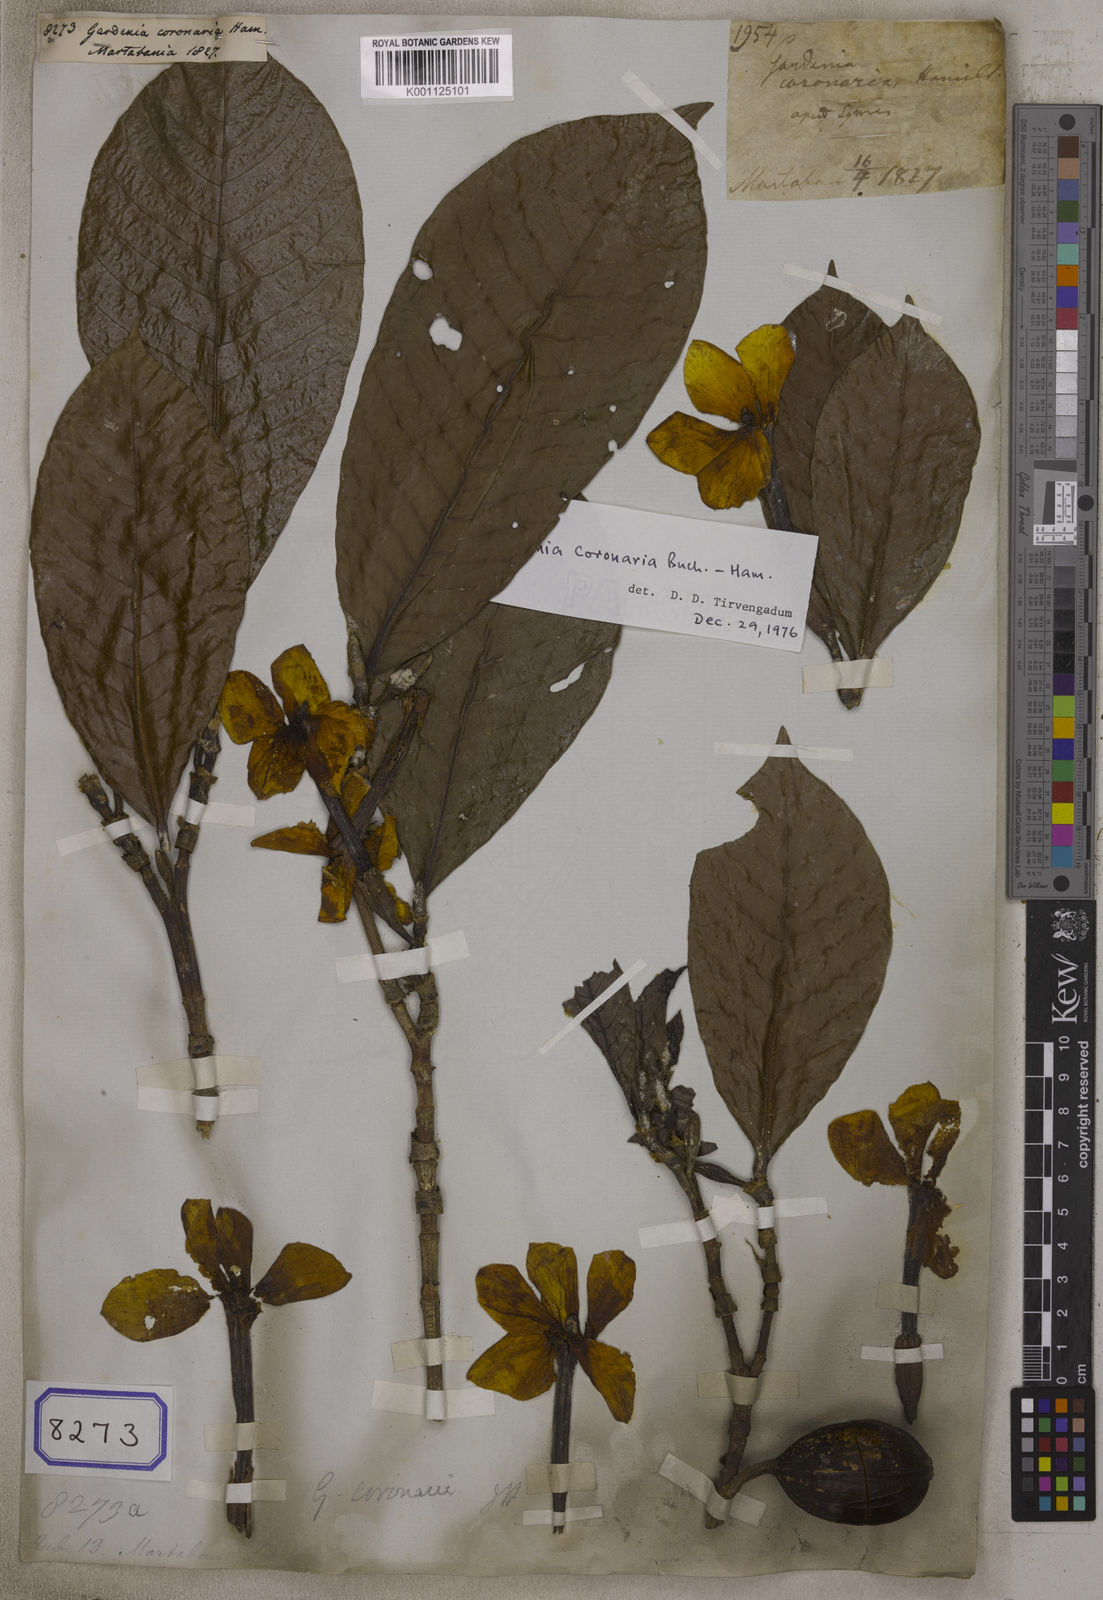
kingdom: Plantae
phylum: Tracheophyta
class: Magnoliopsida
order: Gentianales
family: Rubiaceae
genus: Gardenia
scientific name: Gardenia
